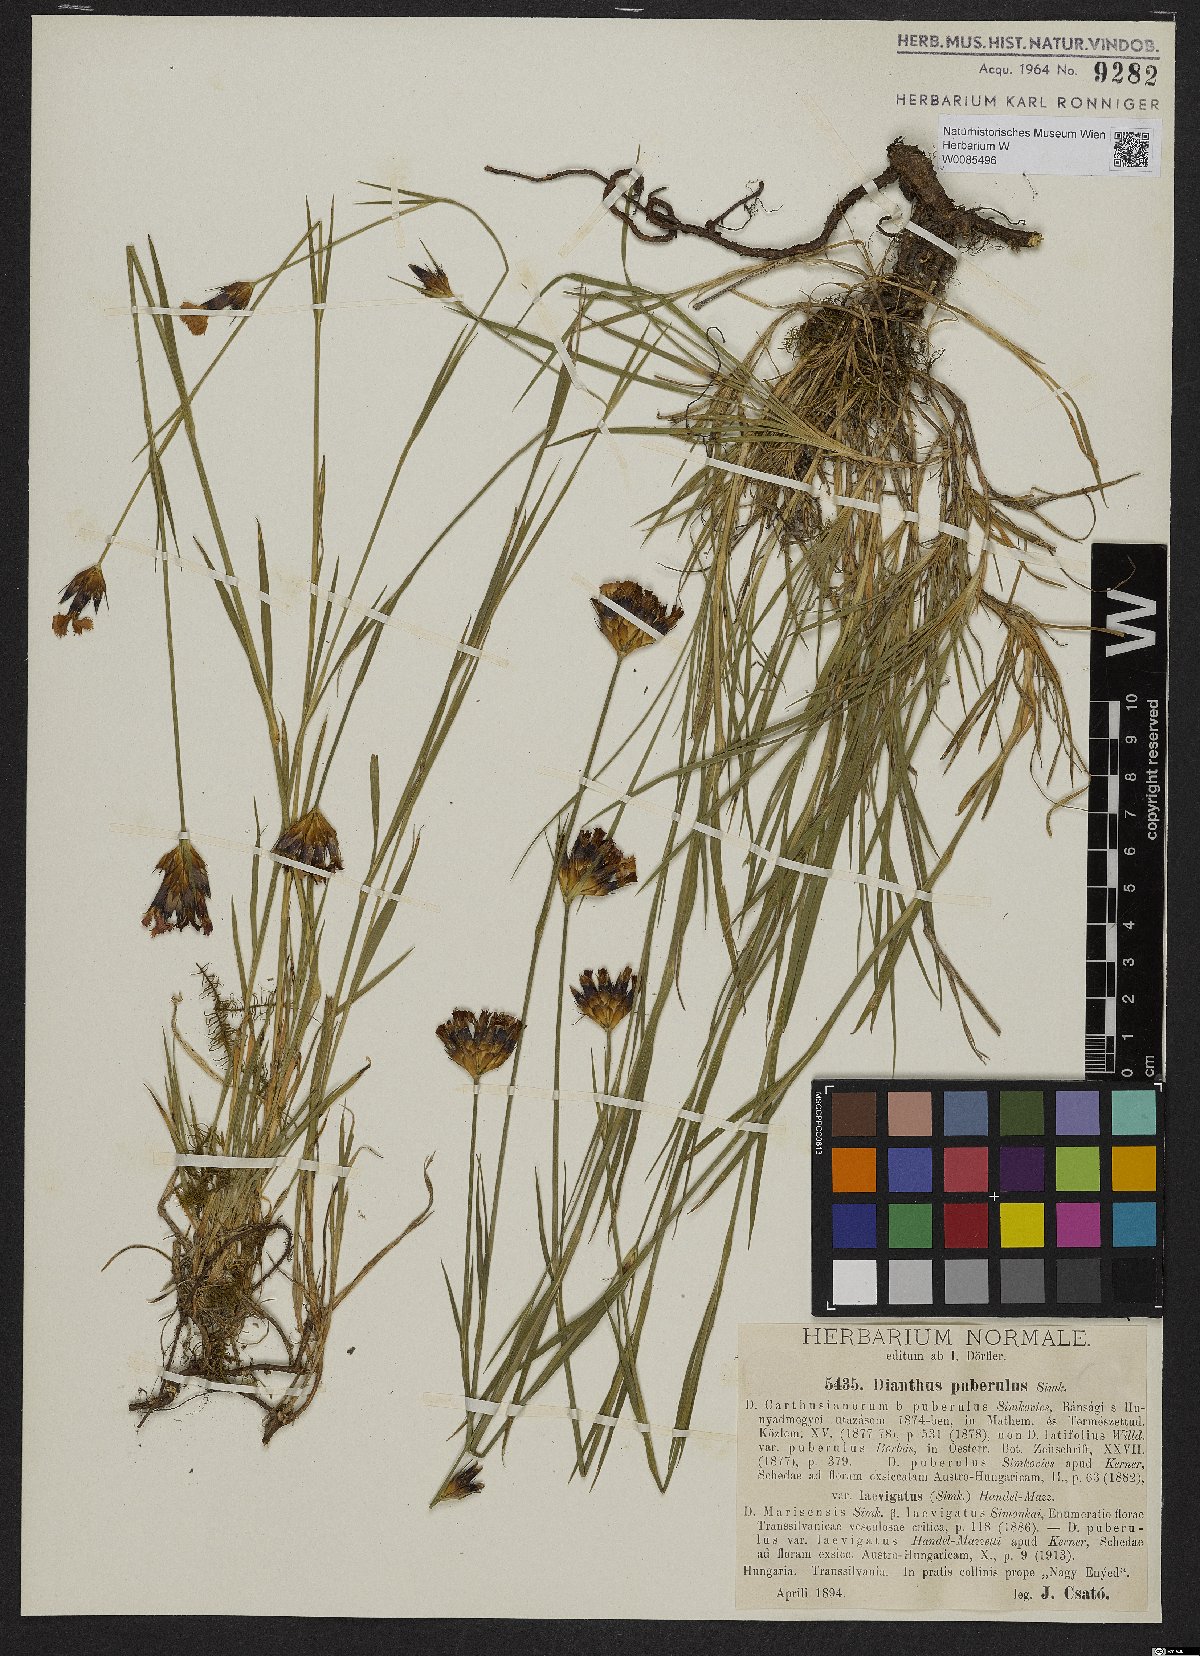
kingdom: Plantae
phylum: Tracheophyta
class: Magnoliopsida
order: Caryophyllales
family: Caryophyllaceae
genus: Dianthus
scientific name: Dianthus carthusianorum
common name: Carthusian pink
